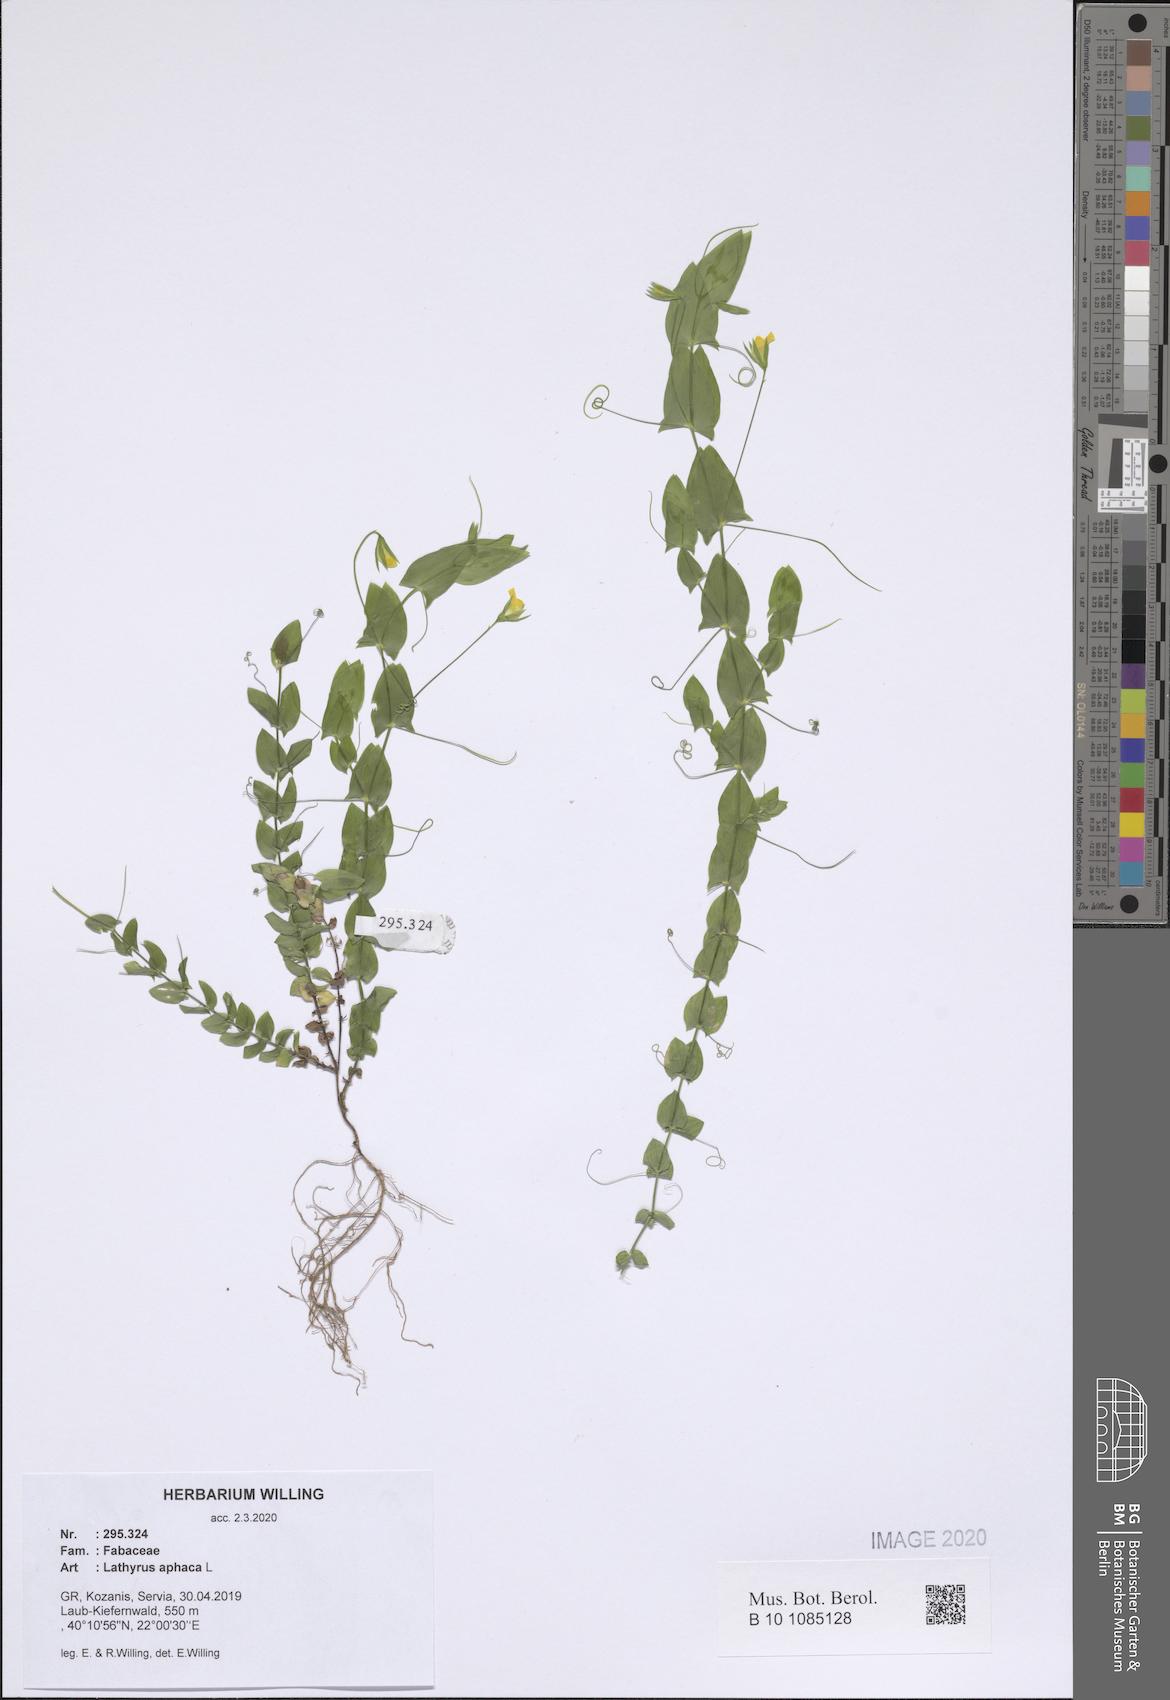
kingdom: Plantae
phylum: Tracheophyta
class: Magnoliopsida
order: Fabales
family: Fabaceae
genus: Lathyrus
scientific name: Lathyrus aphaca
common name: Yellow vetchling
